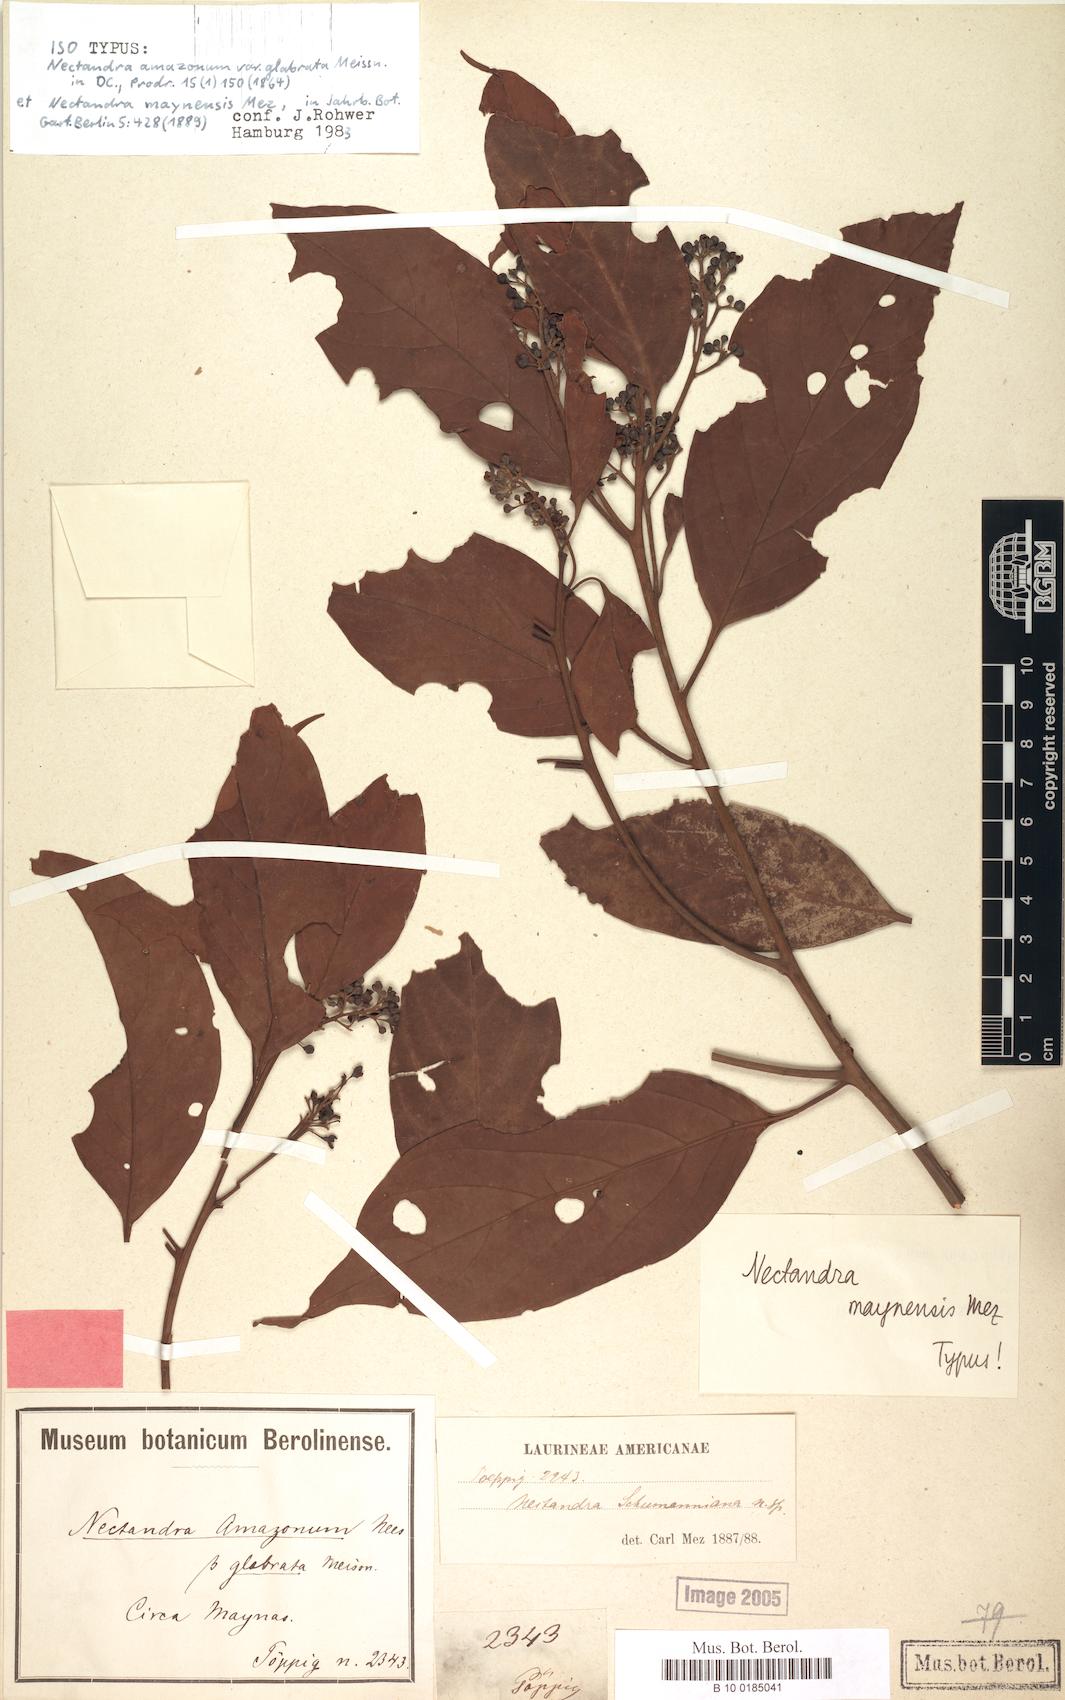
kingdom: Plantae
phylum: Tracheophyta
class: Magnoliopsida
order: Laurales
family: Lauraceae
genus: Nectandra
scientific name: Nectandra maynensis
